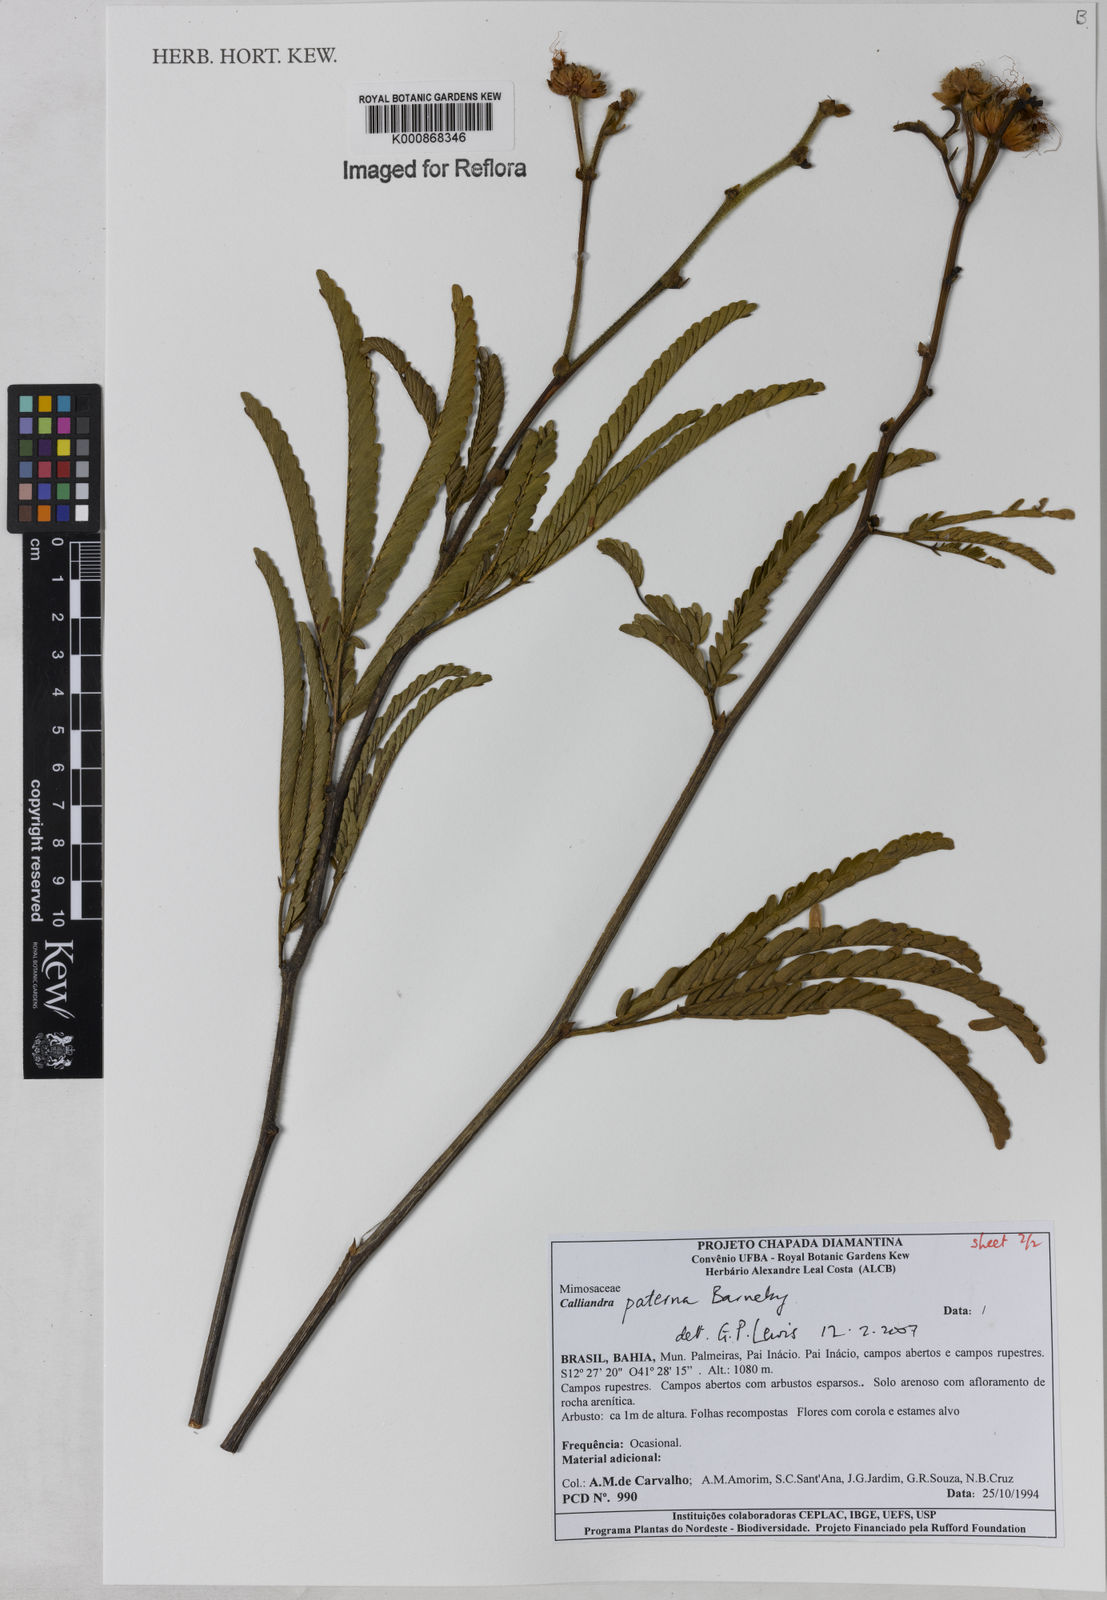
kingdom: Plantae
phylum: Tracheophyta
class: Magnoliopsida
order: Fabales
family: Fabaceae
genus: Calliandra
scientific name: Calliandra paterna
